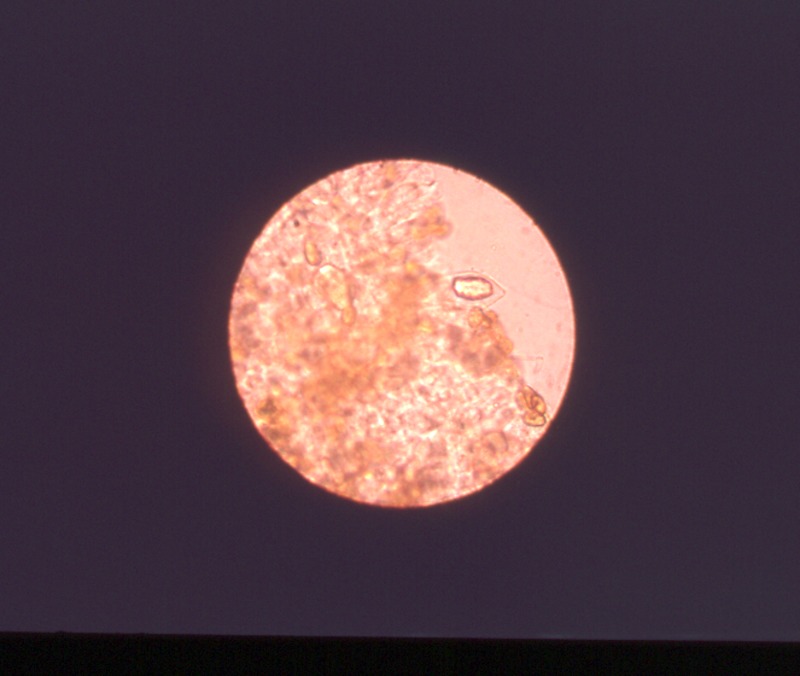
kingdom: Fungi
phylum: Basidiomycota
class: Agaricomycetes
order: Agaricales
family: Strophariaceae
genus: Stropharia
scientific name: Stropharia caerulea
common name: Blue roundhead
